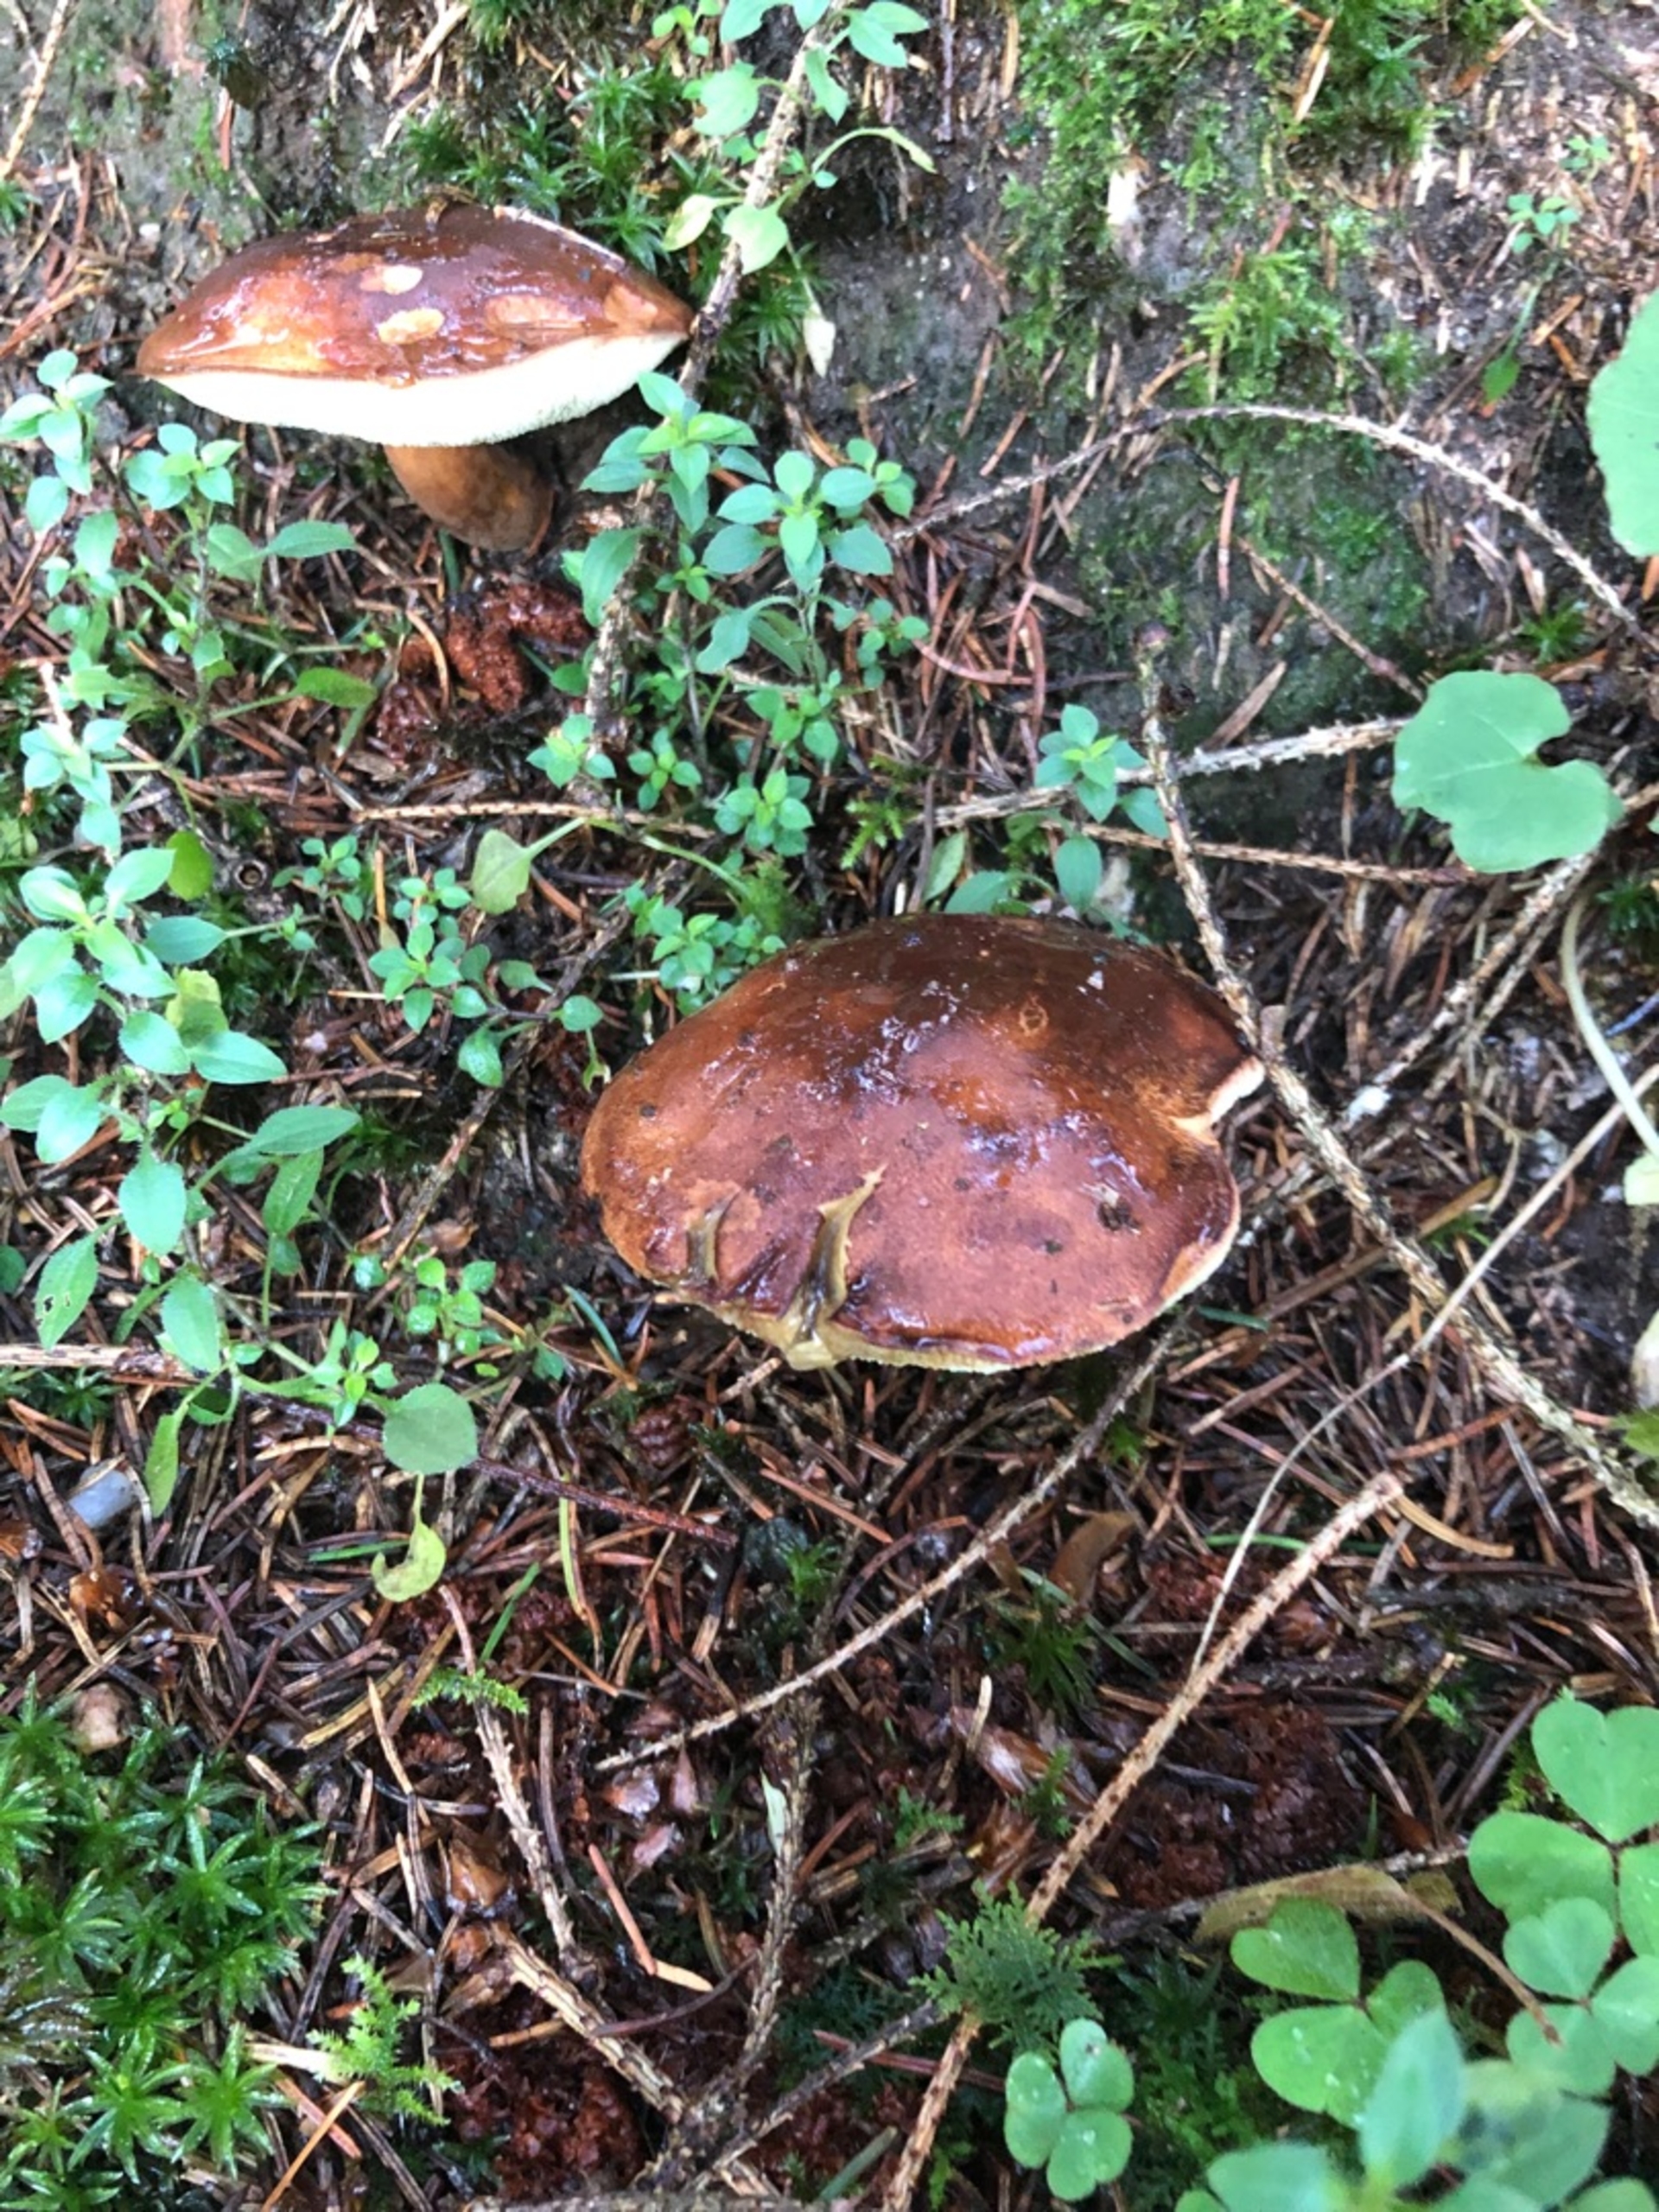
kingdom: Fungi
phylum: Basidiomycota
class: Agaricomycetes
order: Boletales
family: Boletaceae
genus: Imleria
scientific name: Imleria badia
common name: Brunstokket rørhat
